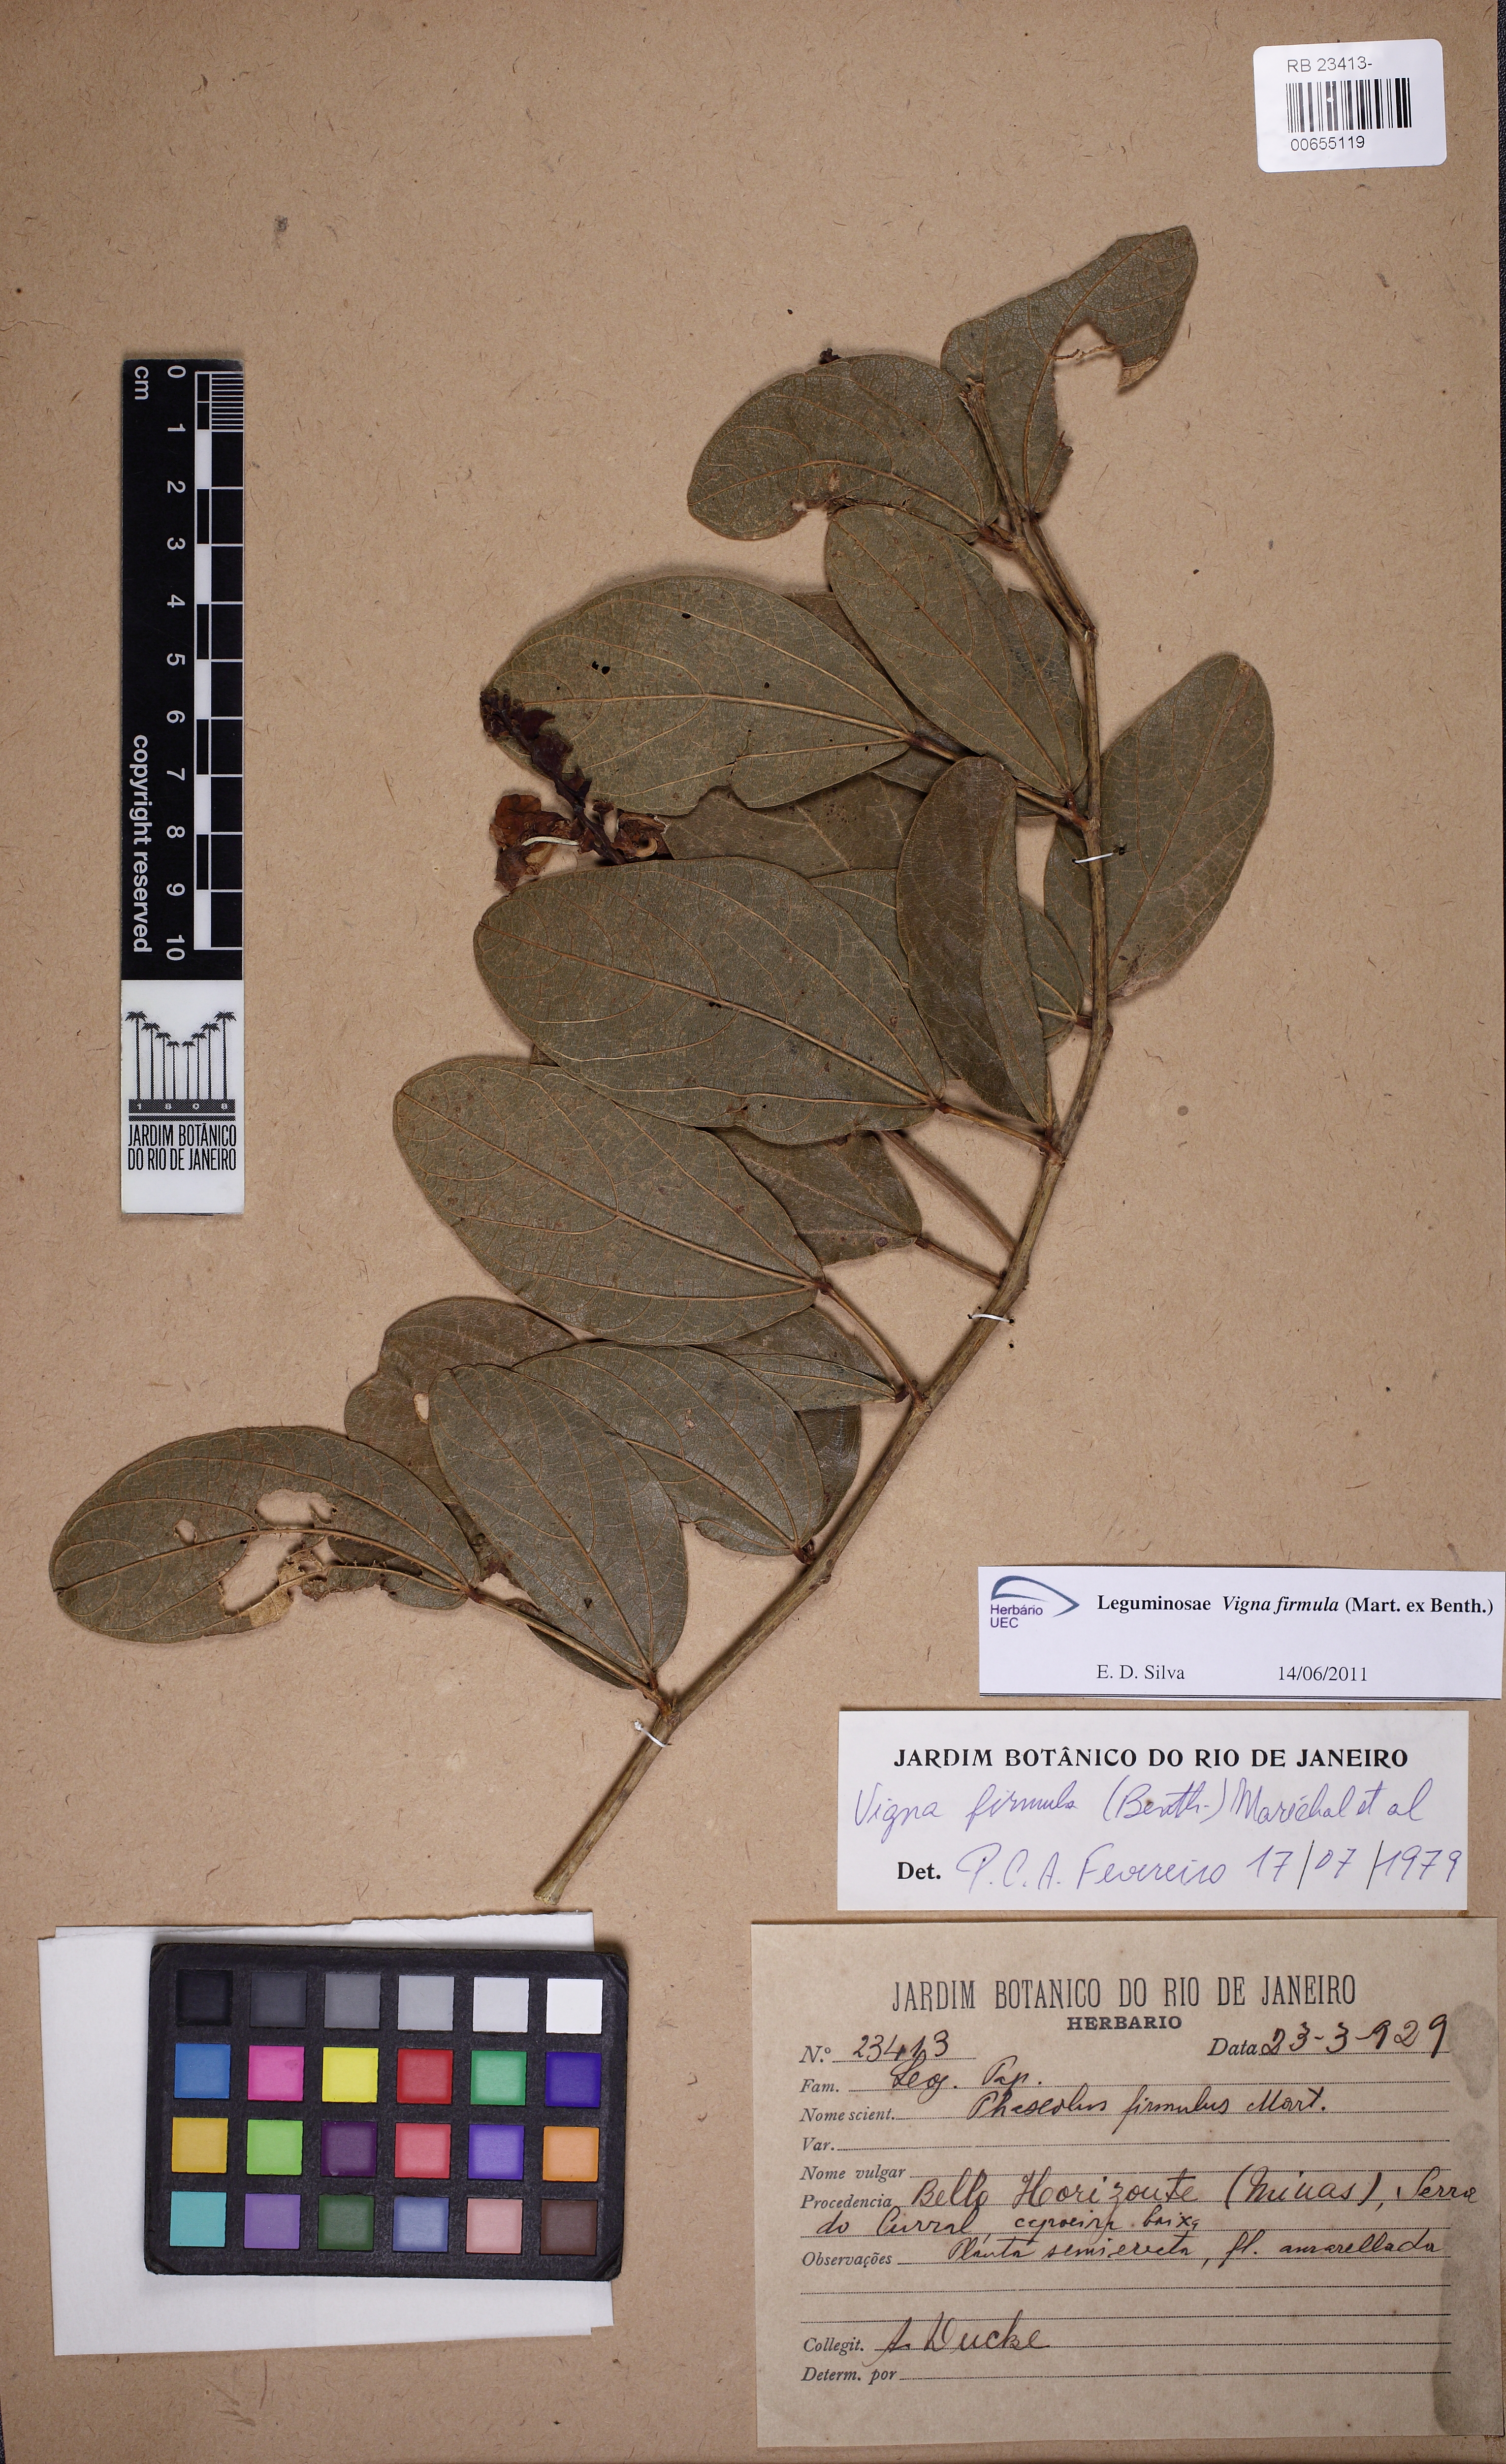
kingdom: Plantae
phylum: Tracheophyta
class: Magnoliopsida
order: Fabales
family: Fabaceae
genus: Ancistrotropis
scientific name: Ancistrotropis firmula
